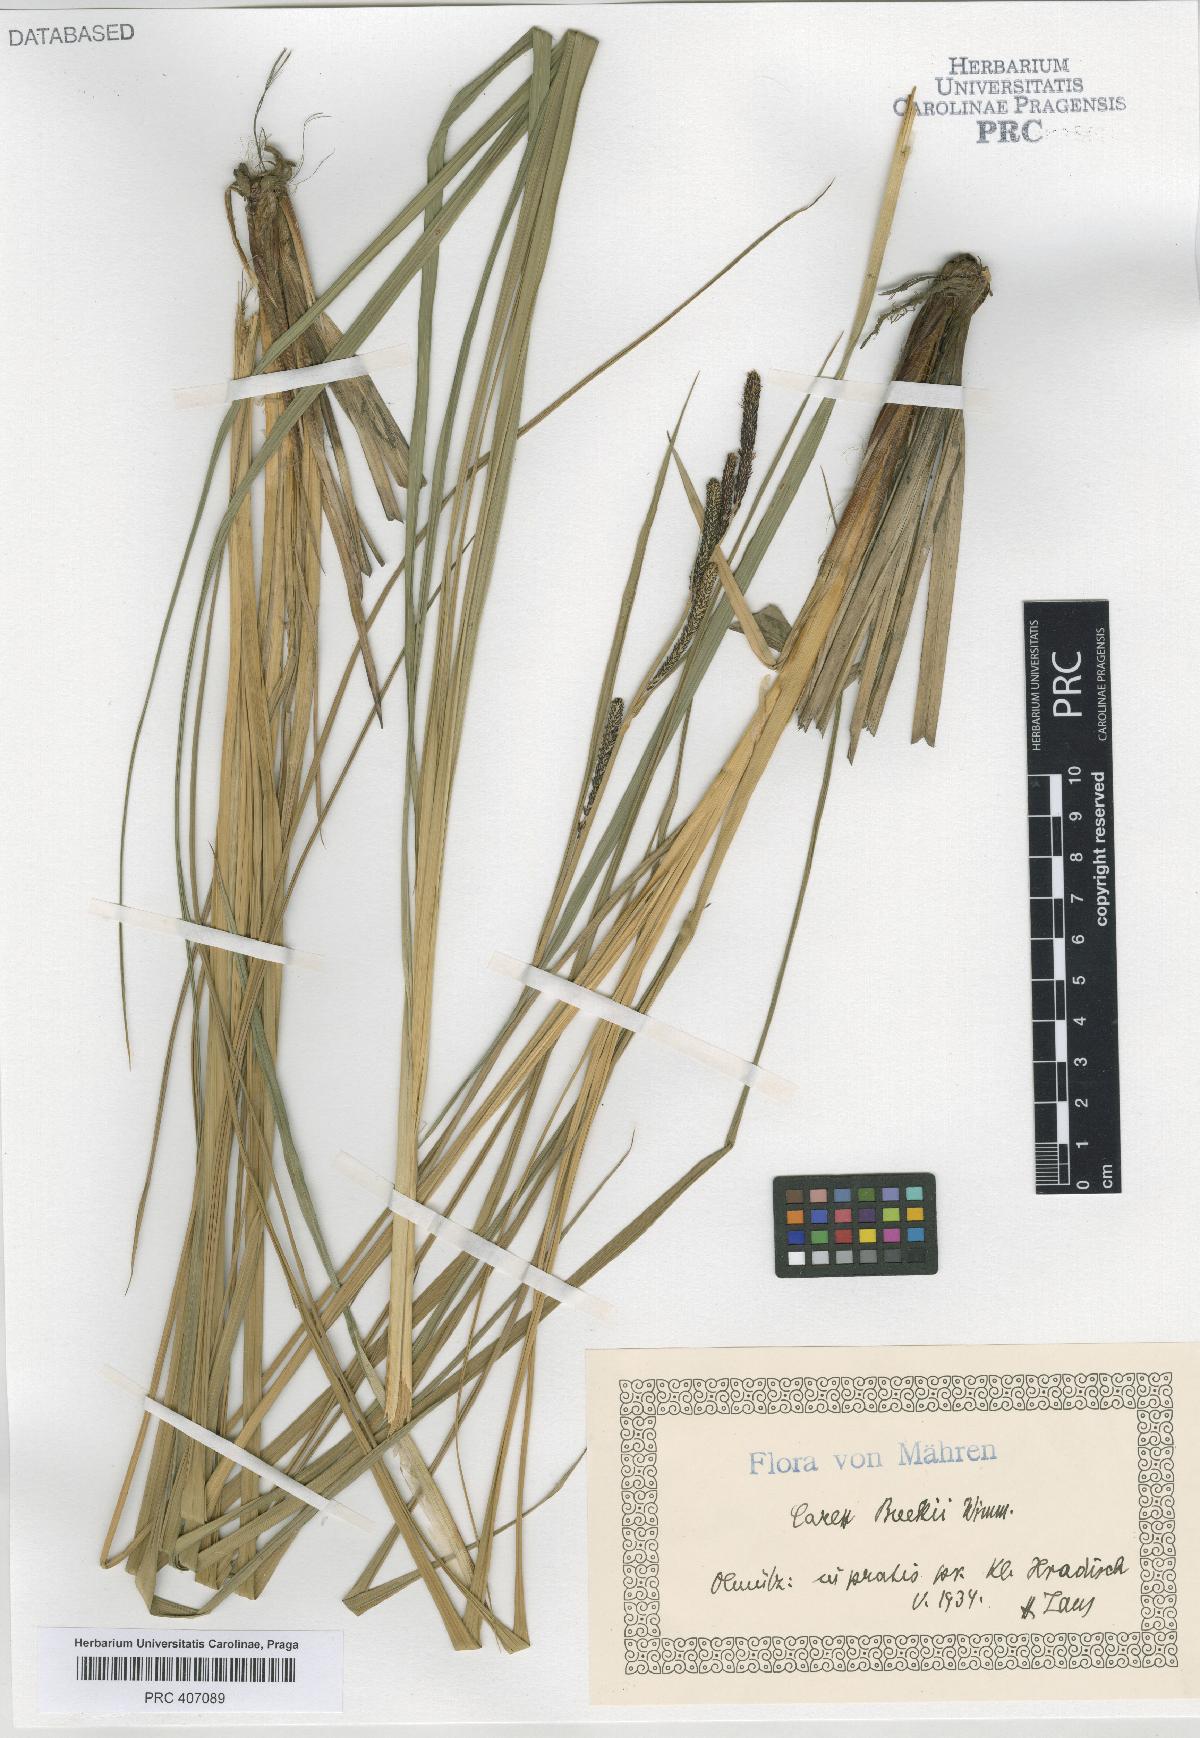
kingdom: Plantae
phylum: Tracheophyta
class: Liliopsida
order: Poales
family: Cyperaceae
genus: Carex
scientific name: Carex buekii
